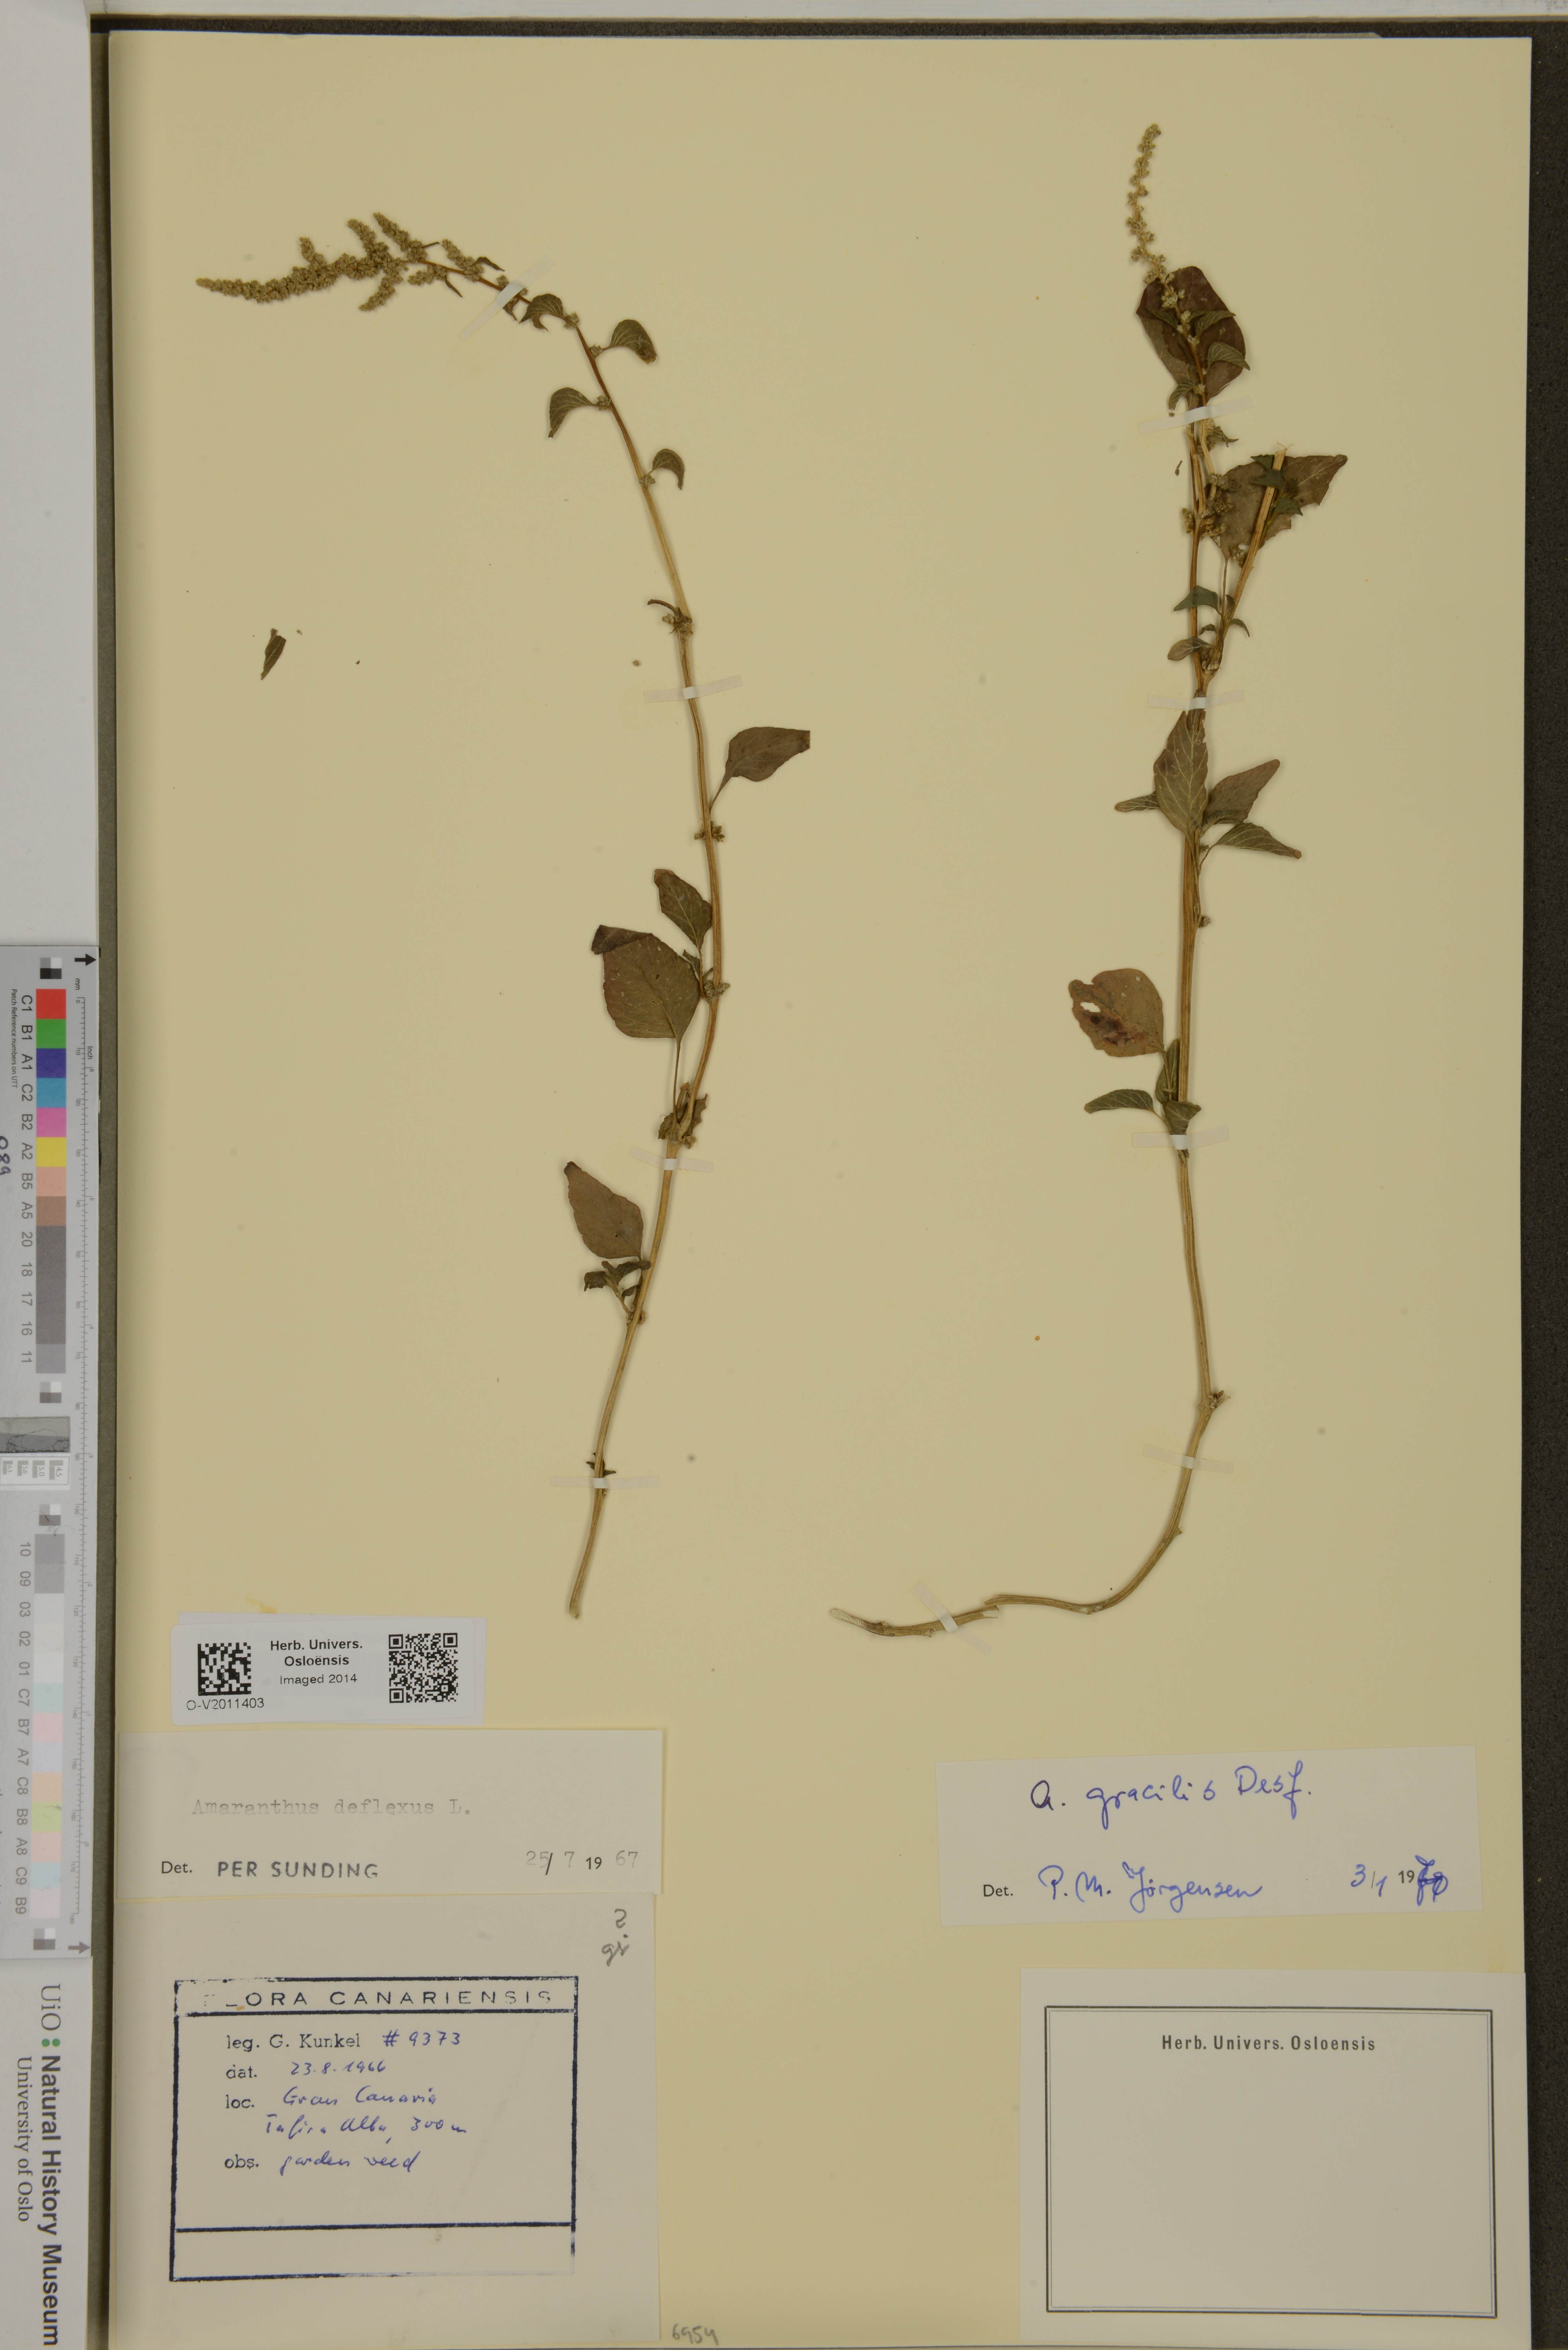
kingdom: Plantae
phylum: Tracheophyta
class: Magnoliopsida
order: Caryophyllales
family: Amaranthaceae
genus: Amaranthus
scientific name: Amaranthus viridis
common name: Slender amaranth
